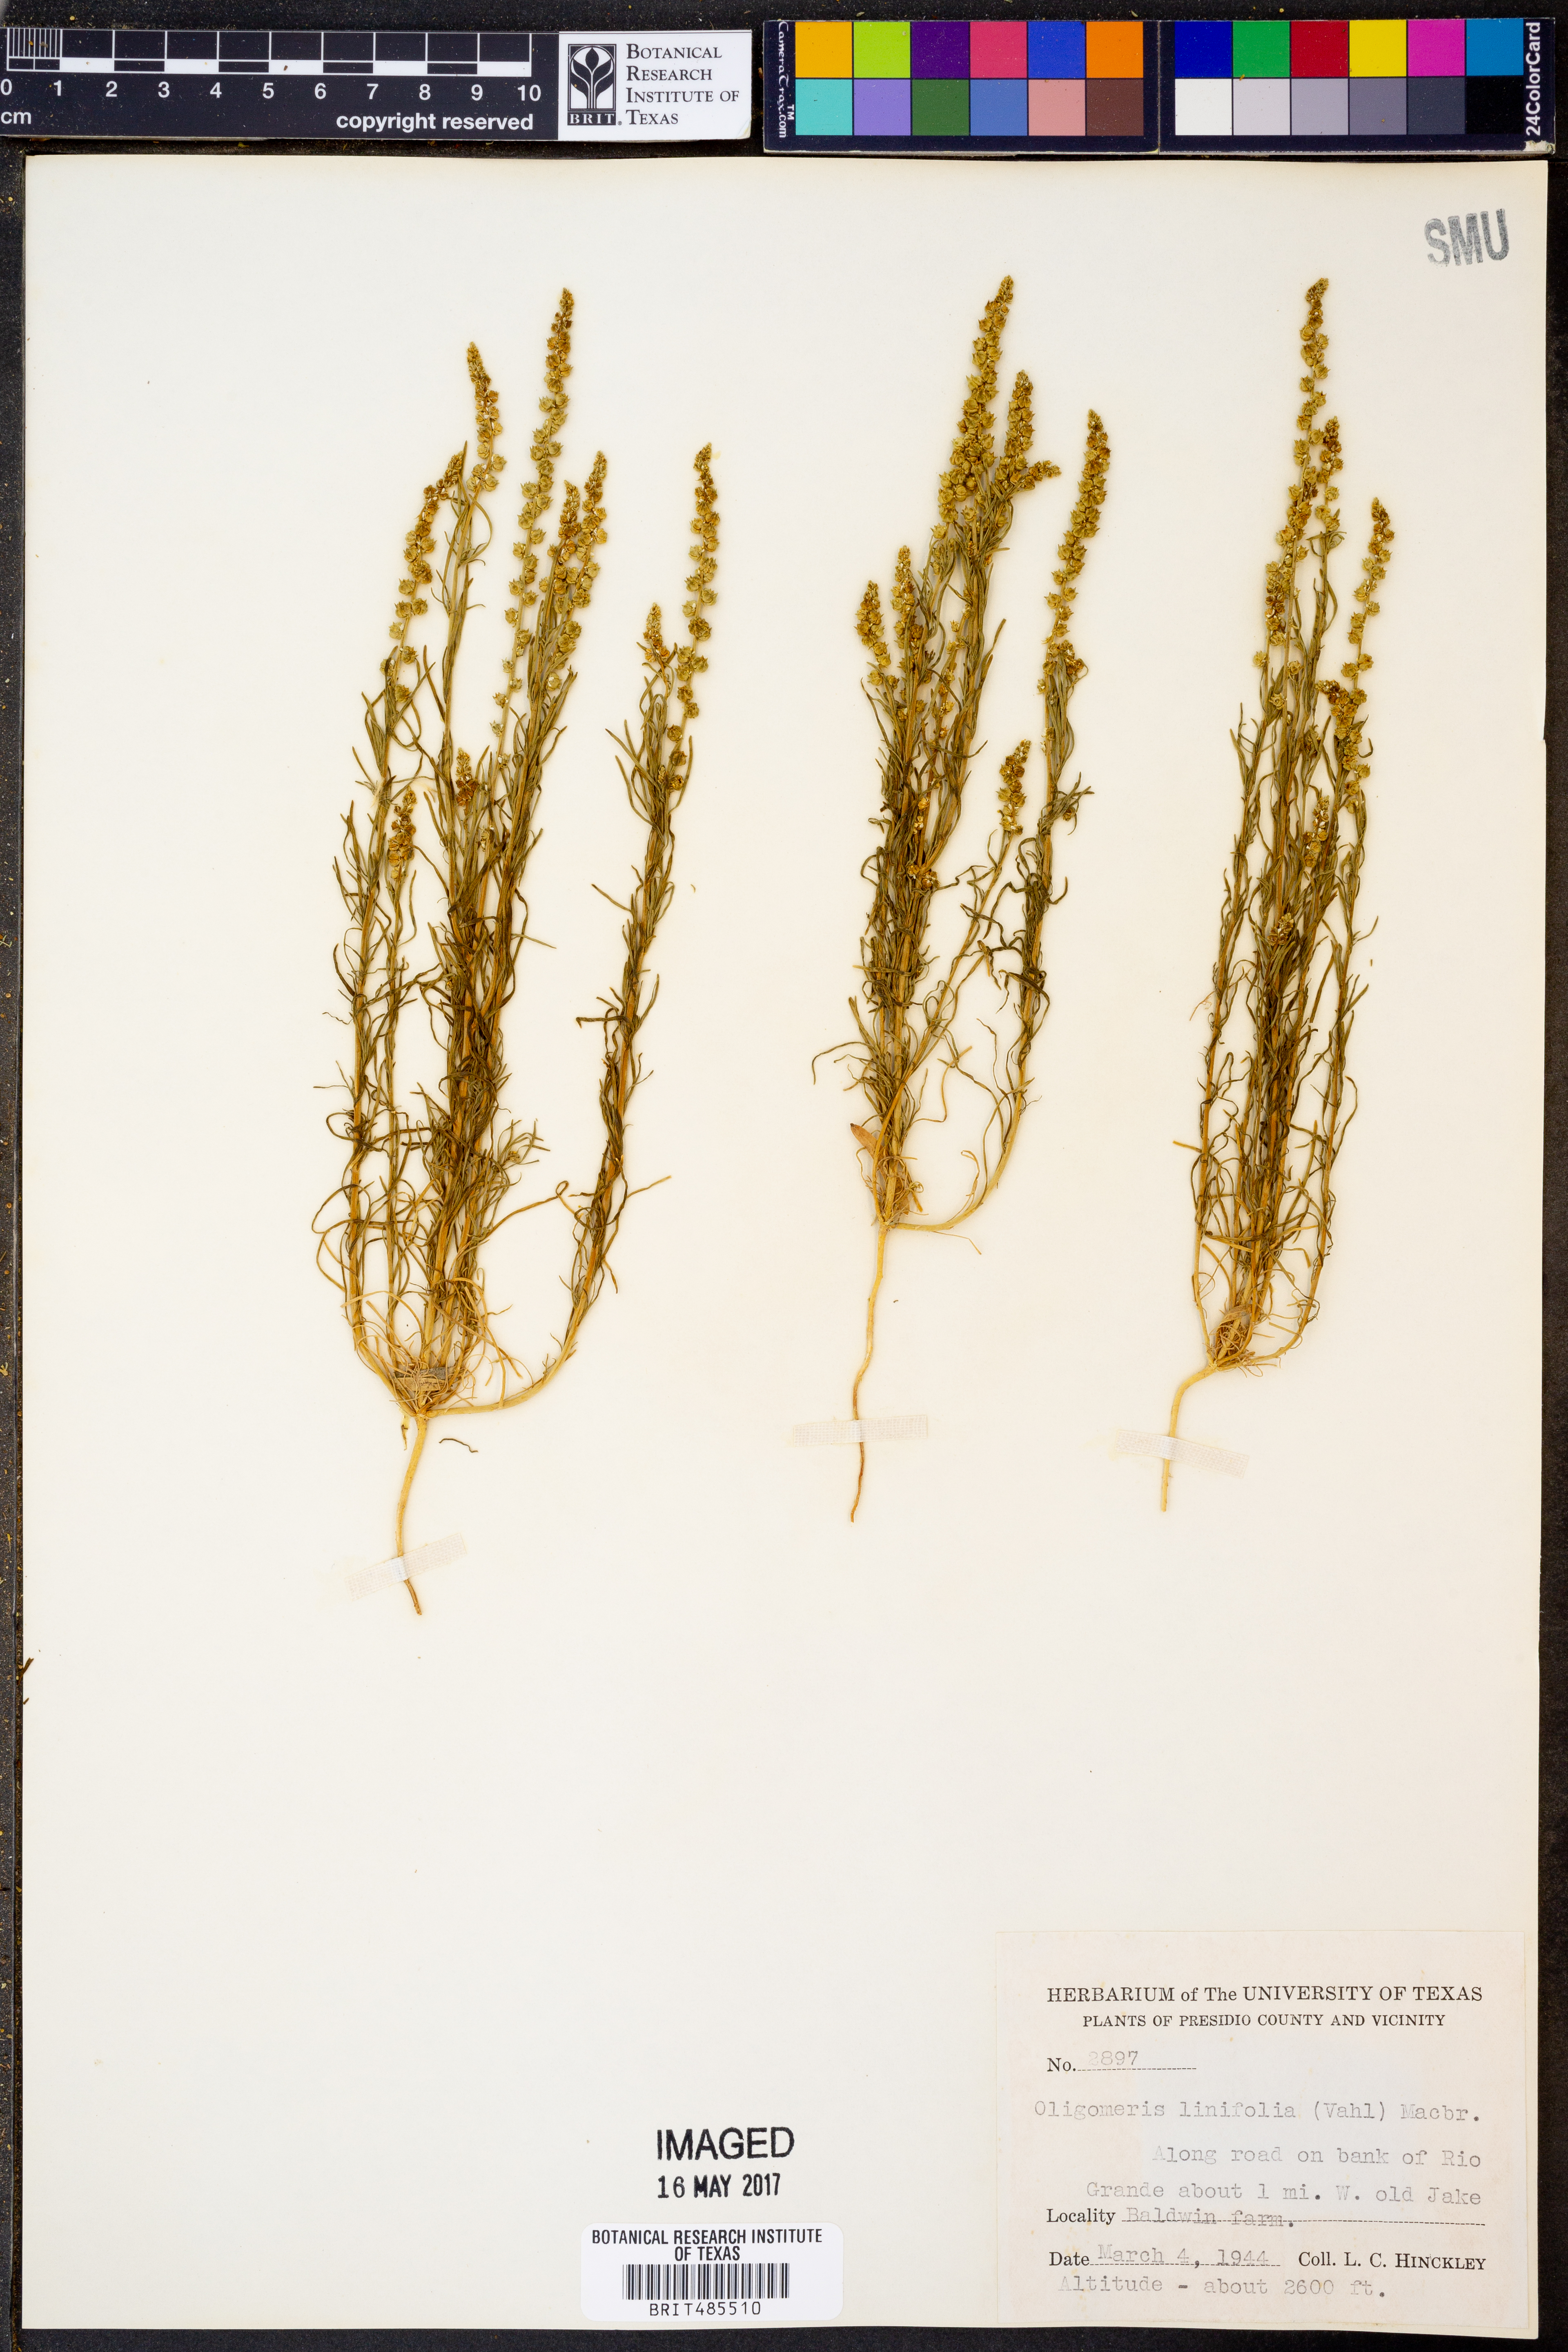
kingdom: Plantae
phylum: Tracheophyta
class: Magnoliopsida
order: Brassicales
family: Resedaceae
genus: Oligomeris
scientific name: Oligomeris linifolia
